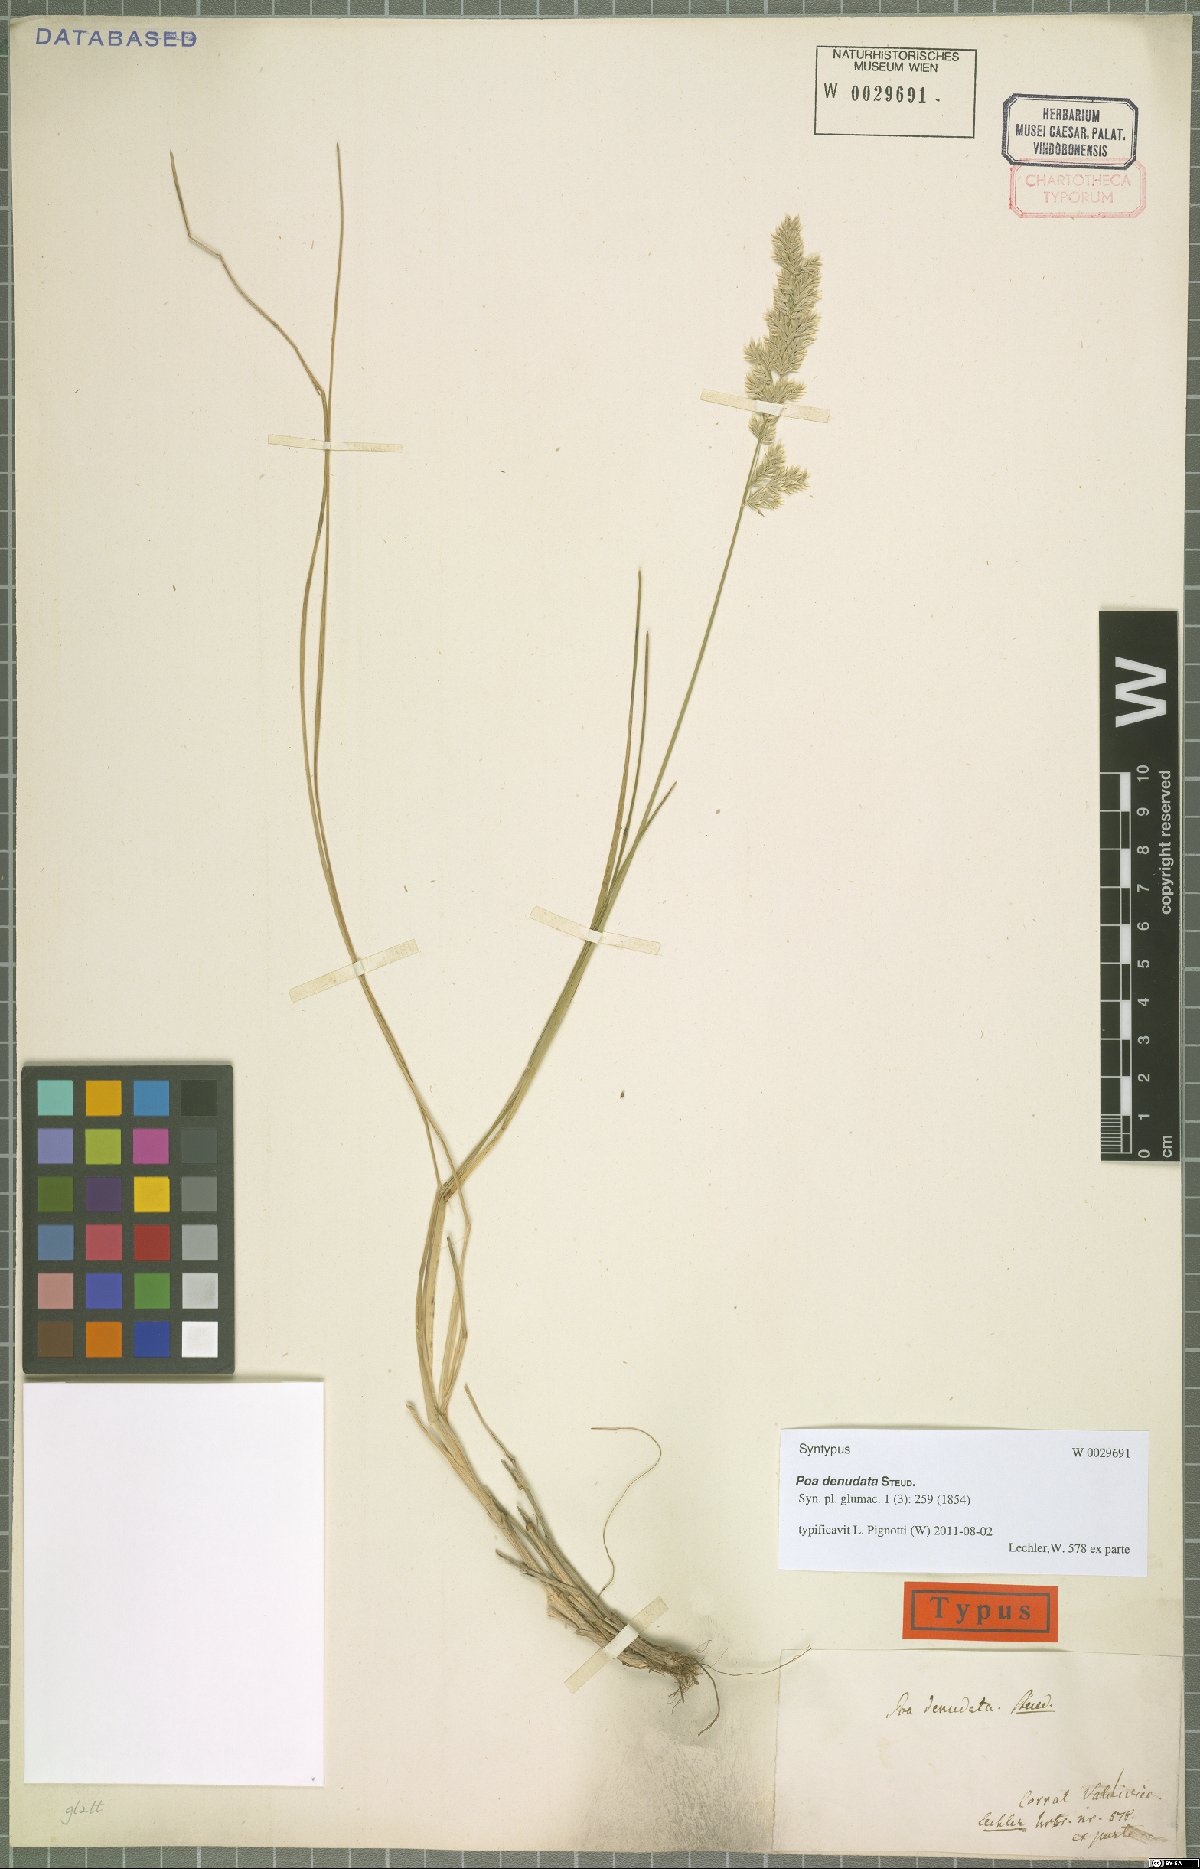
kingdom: Plantae
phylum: Tracheophyta
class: Liliopsida
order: Poales
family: Poaceae
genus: Poa
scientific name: Poa denudata
